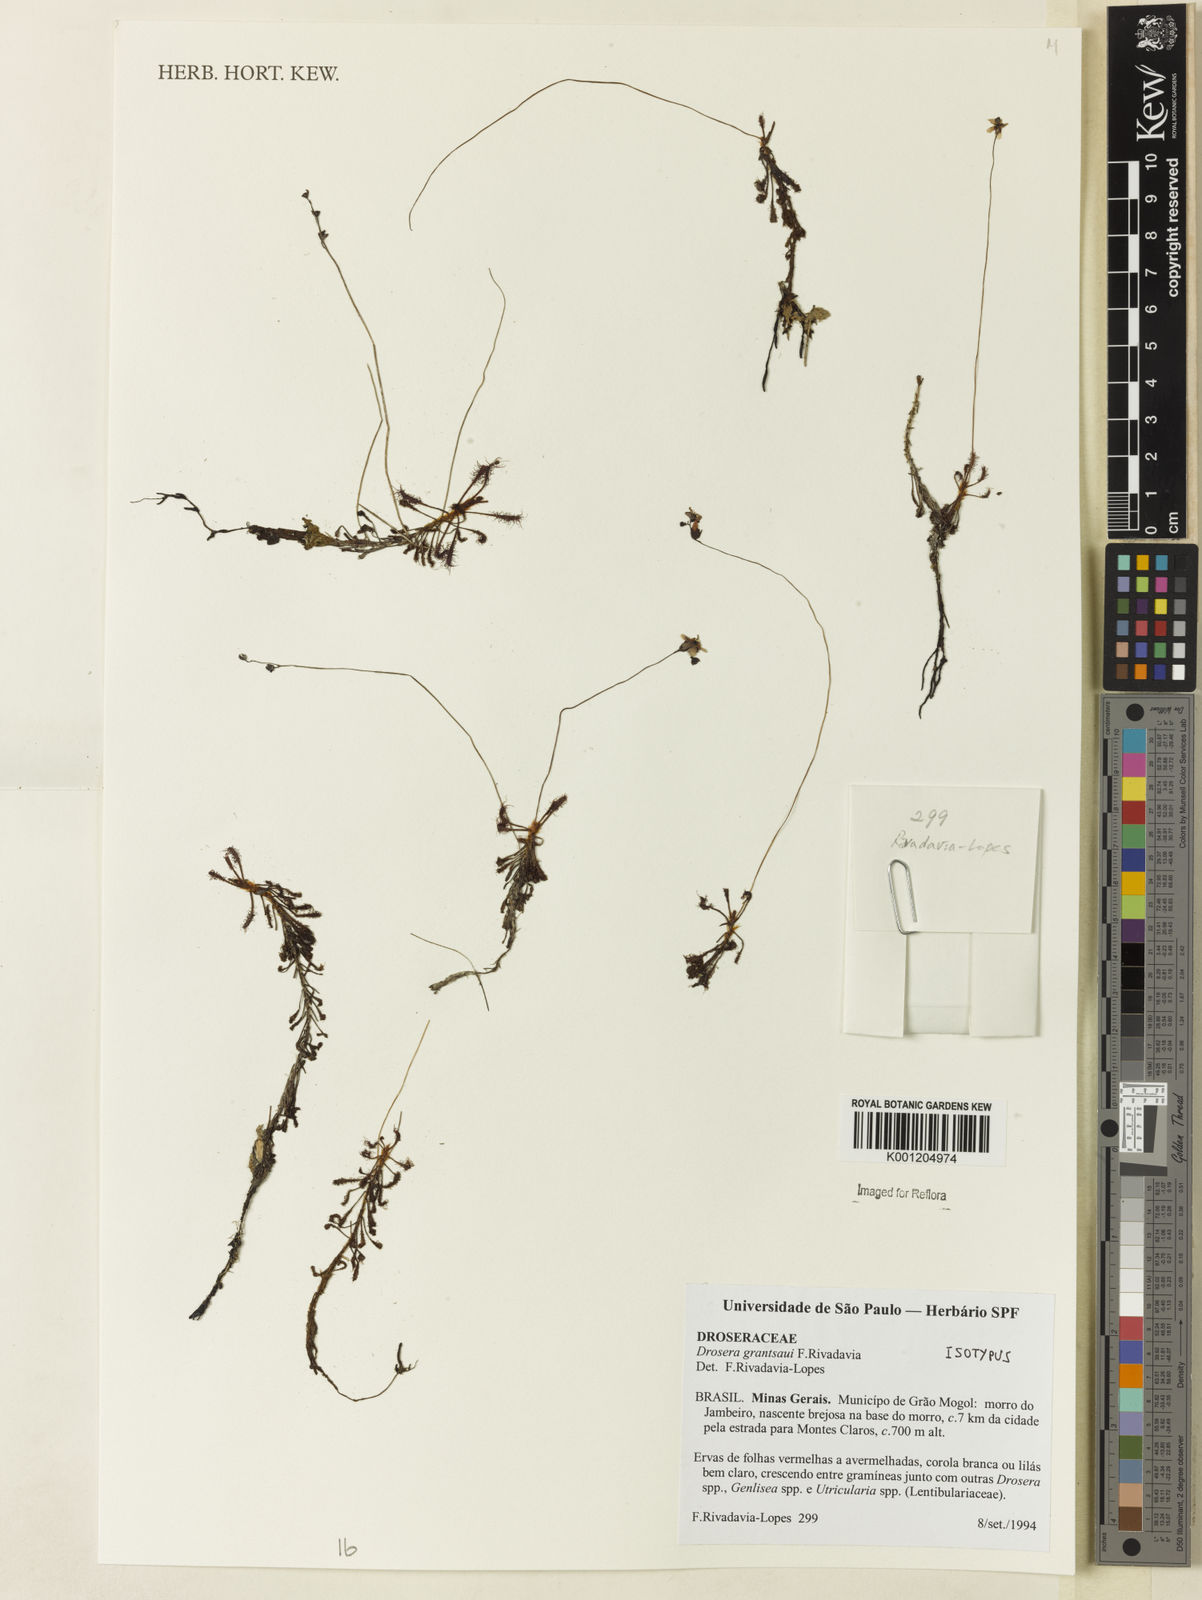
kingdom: Plantae
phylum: Tracheophyta
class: Magnoliopsida
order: Caryophyllales
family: Droseraceae
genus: Drosera
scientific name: Drosera grantsaui
